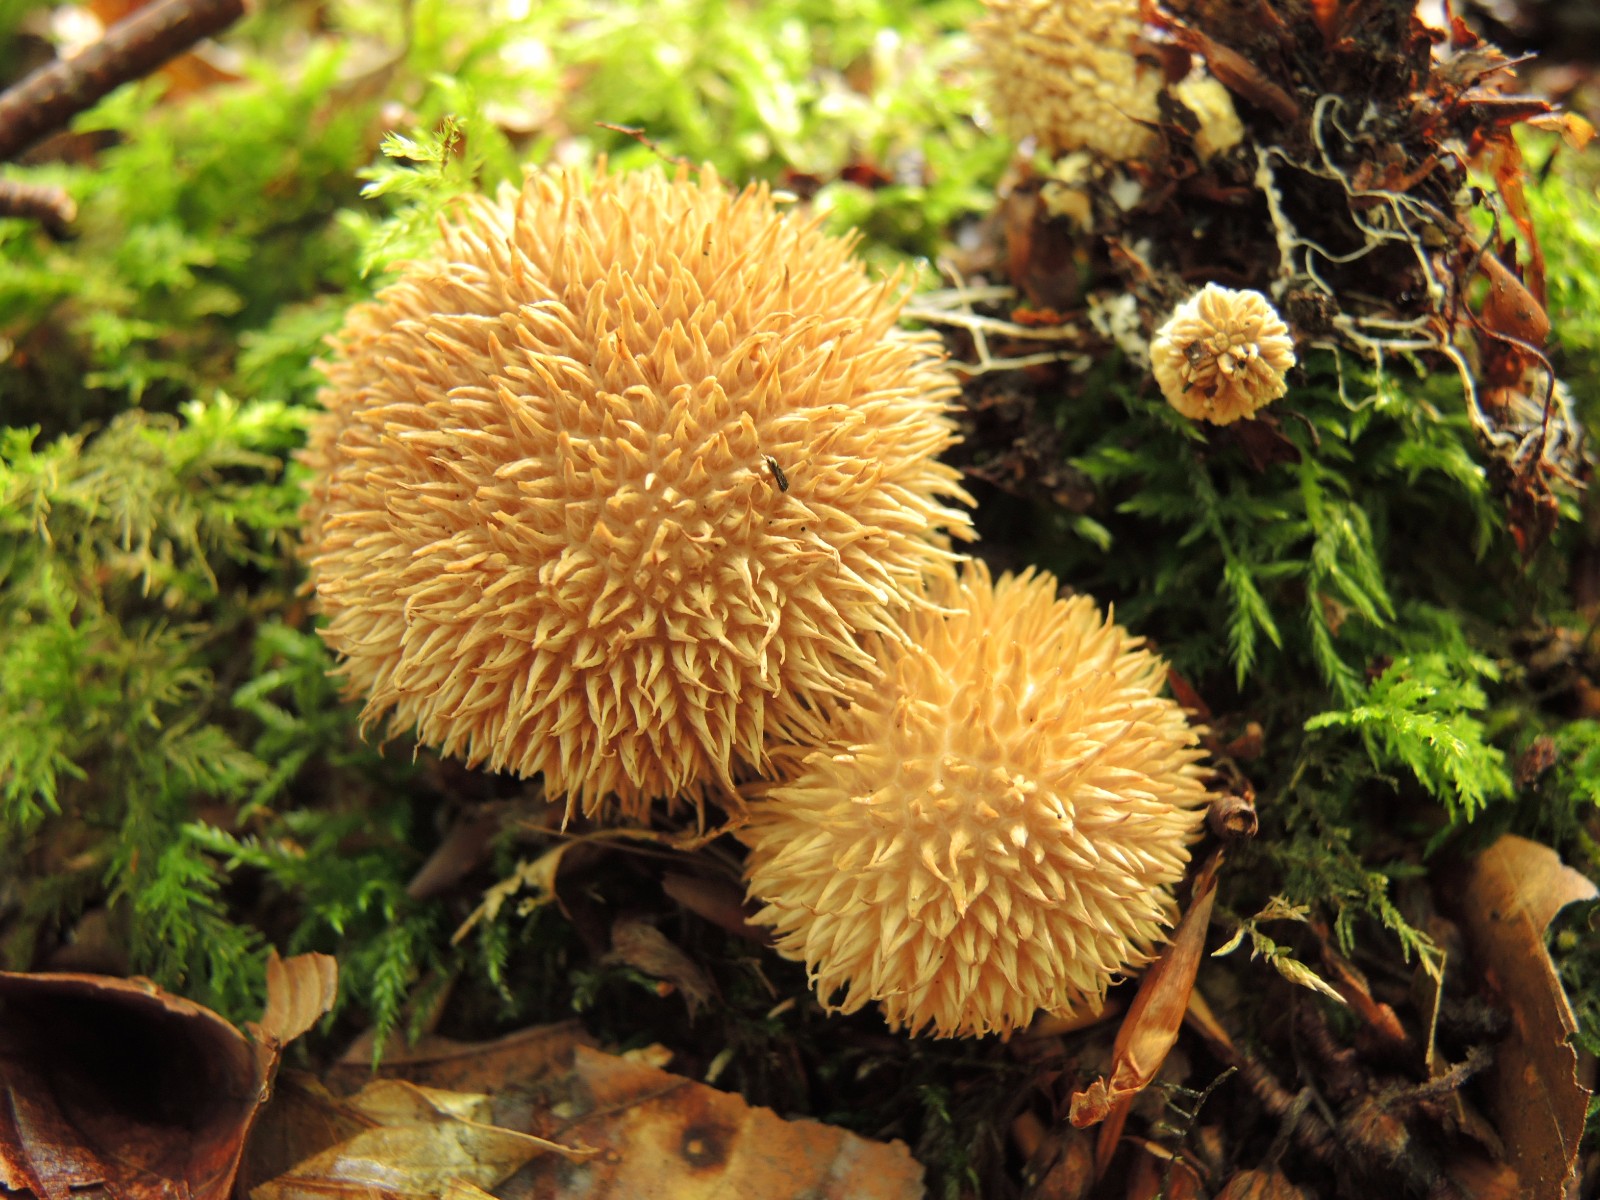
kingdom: Fungi
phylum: Basidiomycota
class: Agaricomycetes
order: Agaricales
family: Lycoperdaceae
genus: Lycoperdon
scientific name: Lycoperdon echinatum
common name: pindsvine-støvbold
